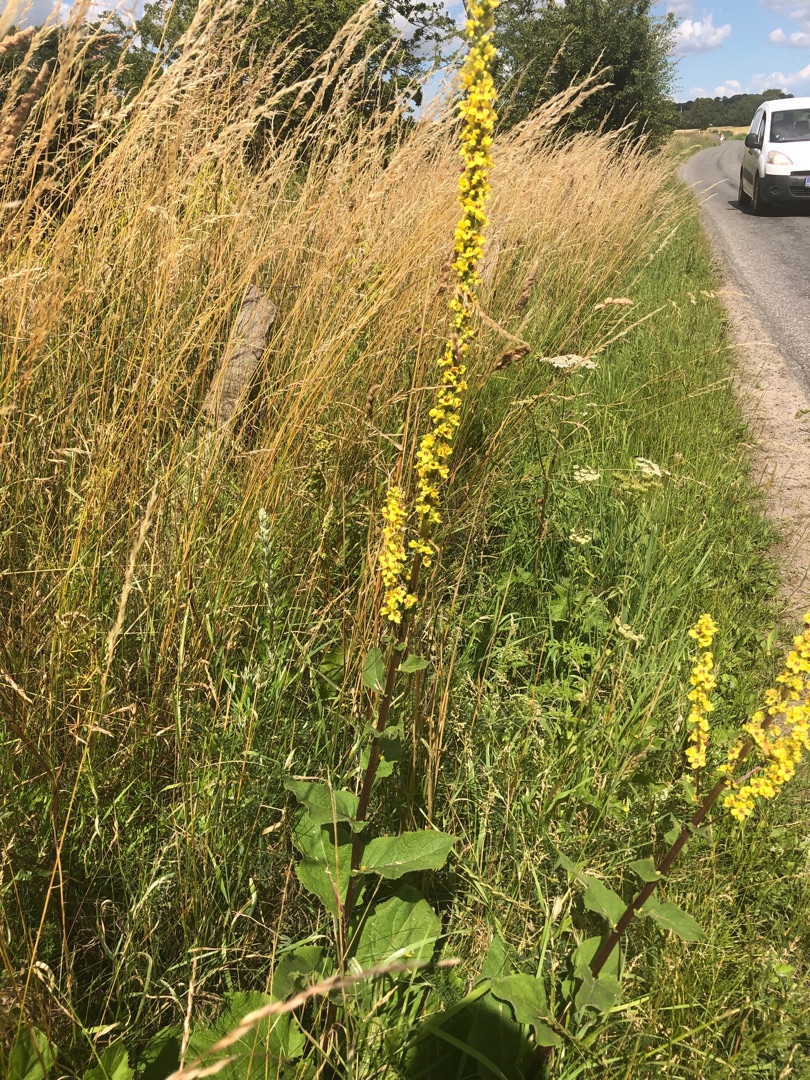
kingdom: Plantae
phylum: Tracheophyta
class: Magnoliopsida
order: Lamiales
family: Scrophulariaceae
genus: Verbascum
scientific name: Verbascum nigrum
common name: Mørk kongelys
